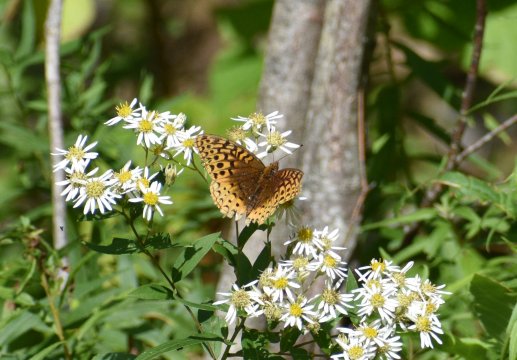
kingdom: Animalia
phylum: Arthropoda
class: Insecta
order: Lepidoptera
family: Nymphalidae
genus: Speyeria
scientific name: Speyeria cybele
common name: Great Spangled Fritillary
